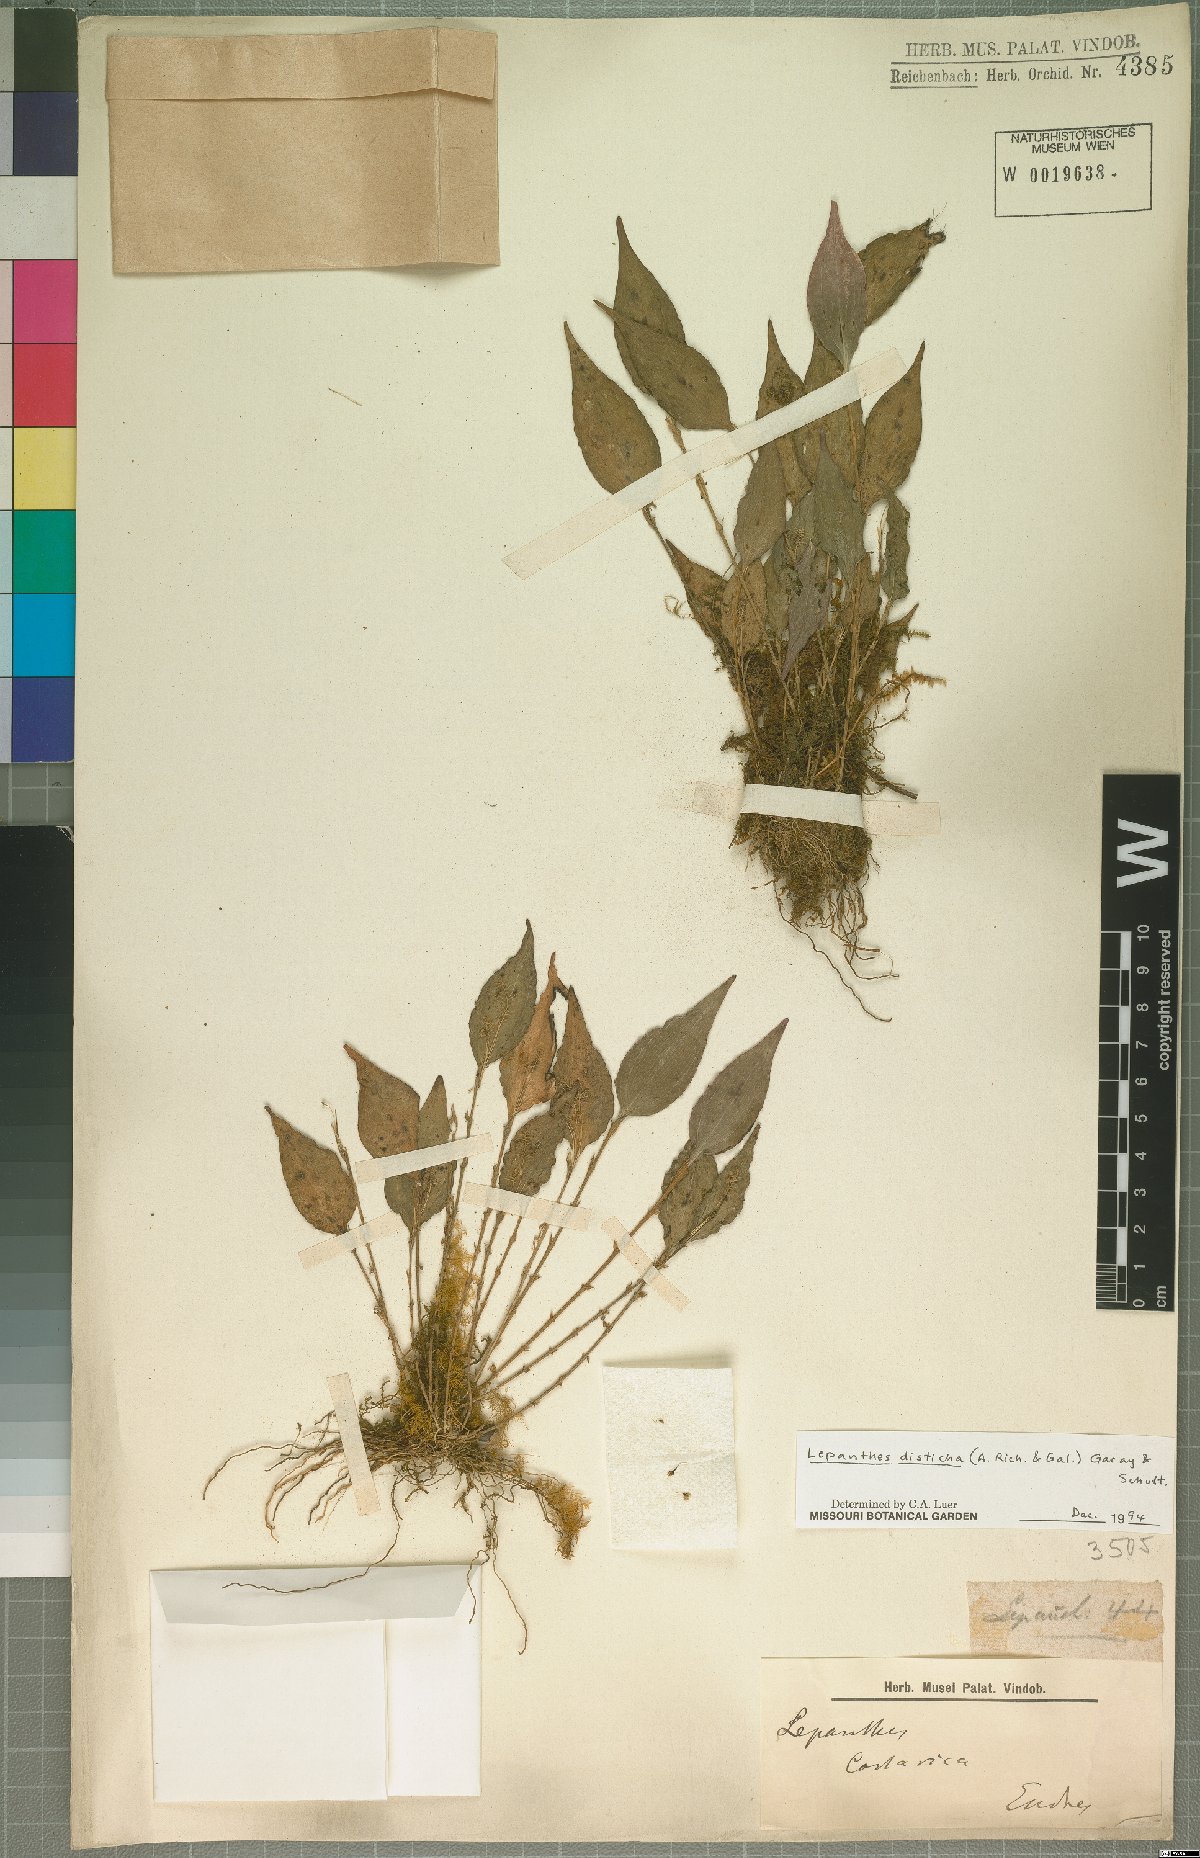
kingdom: Plantae
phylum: Tracheophyta
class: Liliopsida
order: Asparagales
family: Orchidaceae
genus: Lepanthes
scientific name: Lepanthes disticha
